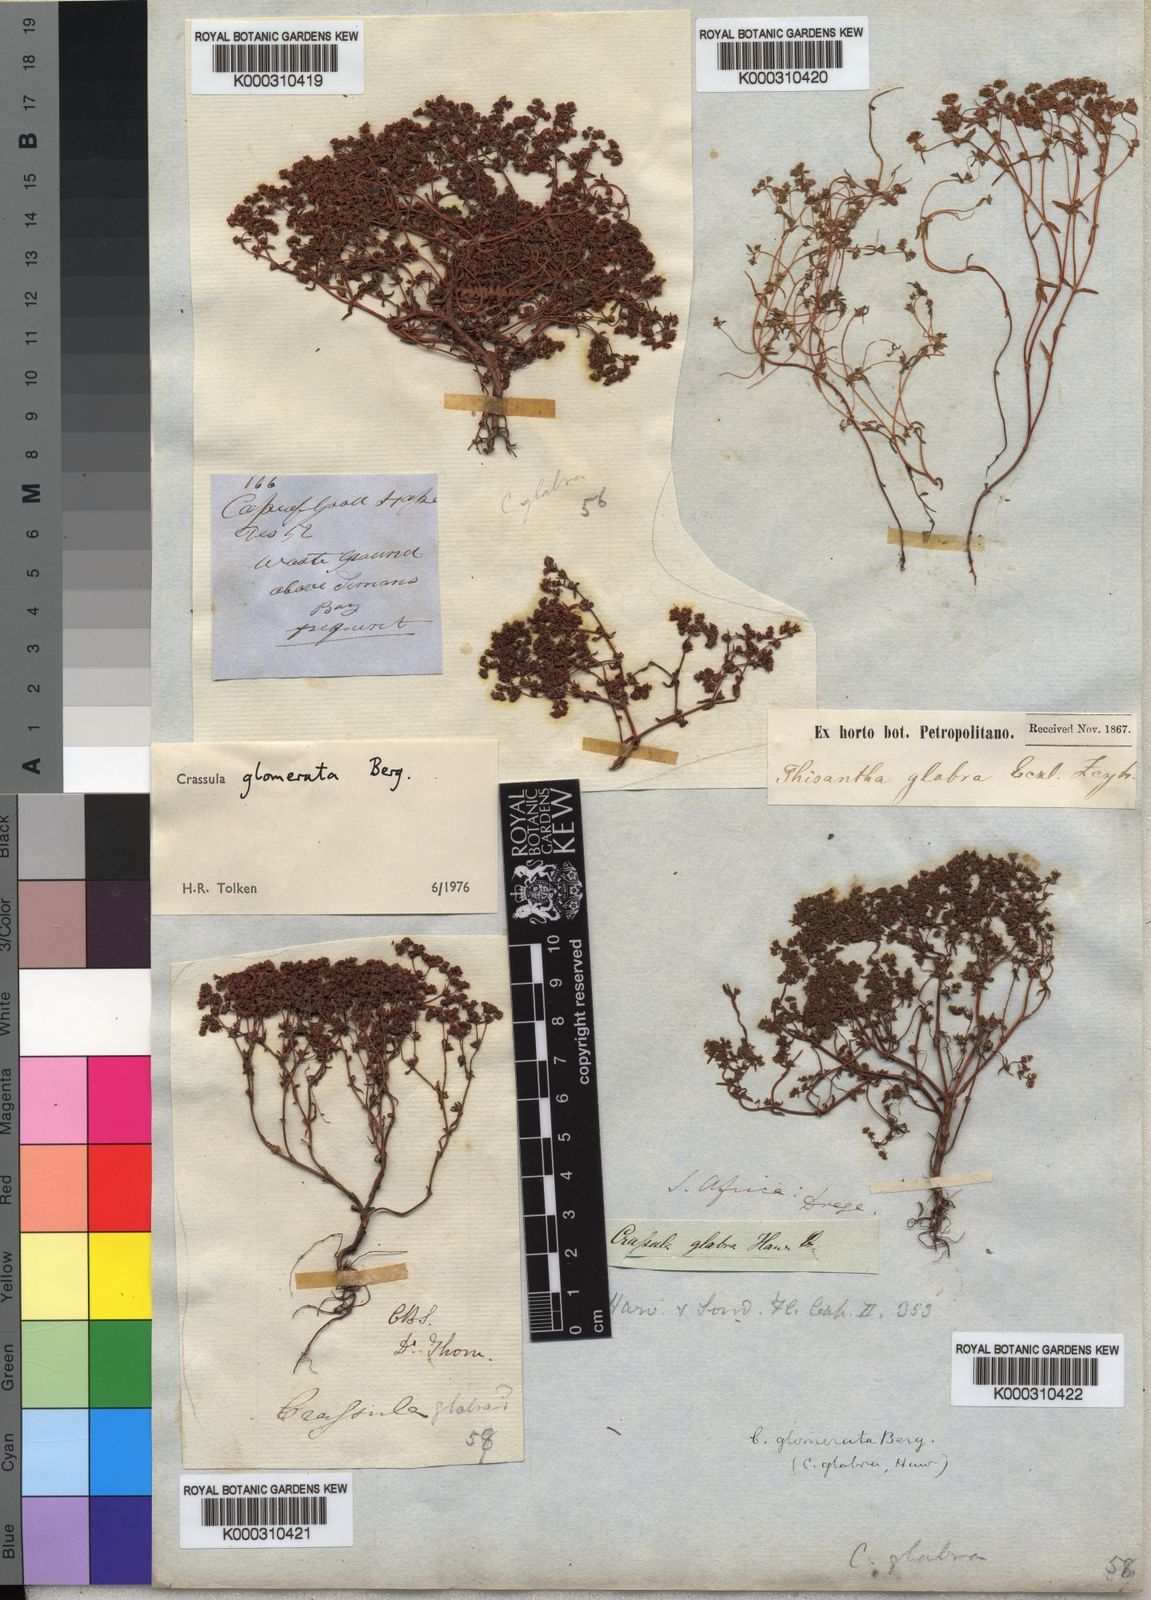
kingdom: Plantae
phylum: Tracheophyta
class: Magnoliopsida
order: Saxifragales
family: Crassulaceae
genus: Crassula
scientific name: Crassula glomerata
